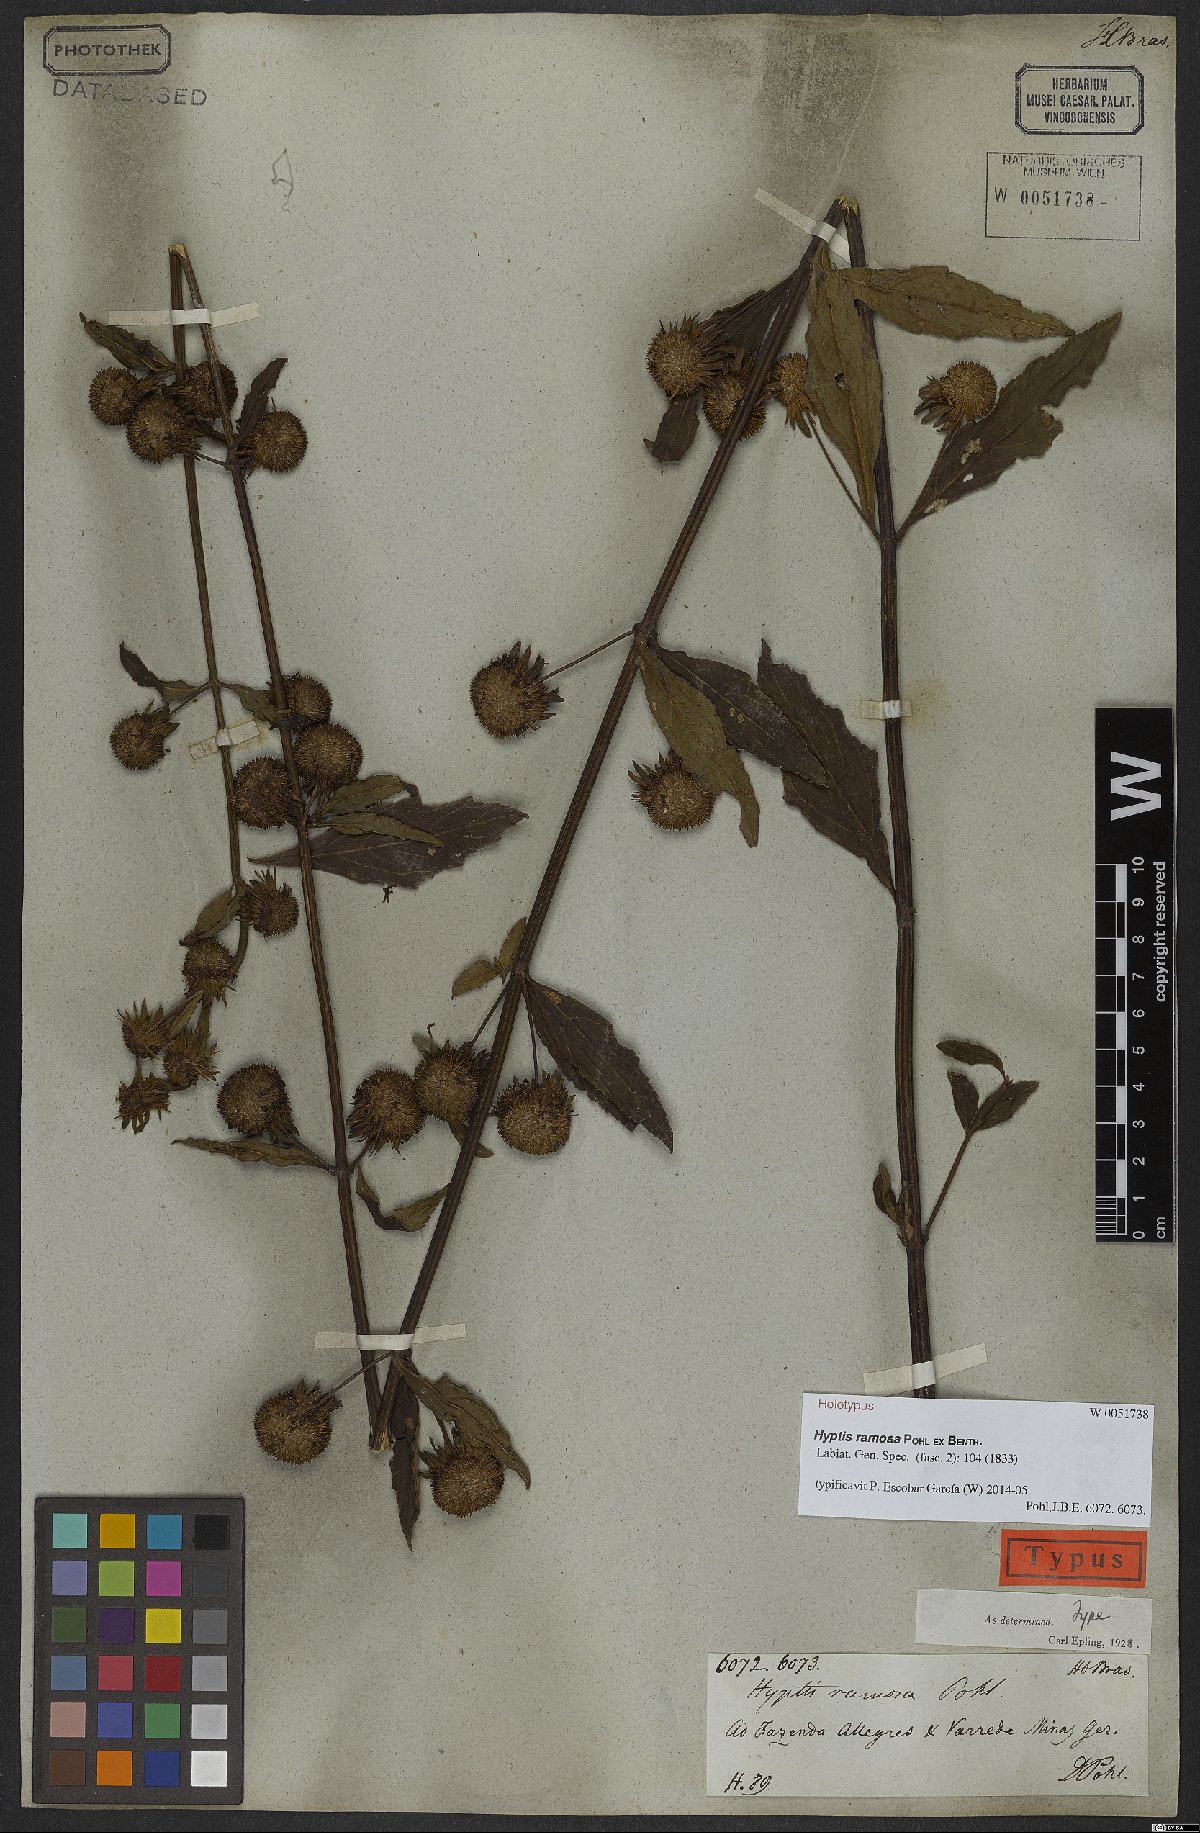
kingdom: Plantae
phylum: Tracheophyta
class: Magnoliopsida
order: Lamiales
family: Lamiaceae
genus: Hyptis
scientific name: Hyptis ramosa
